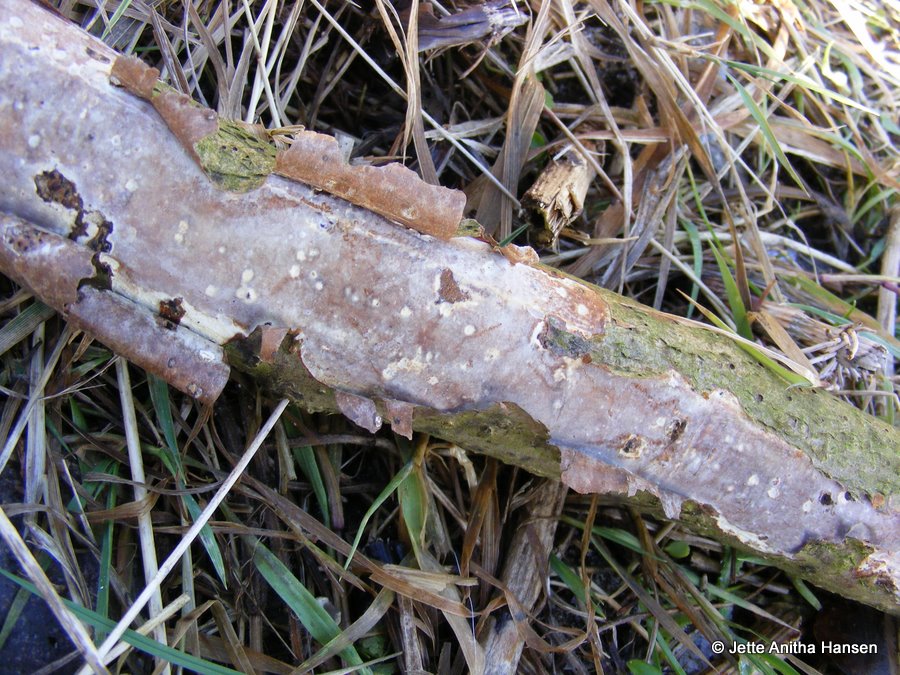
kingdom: Fungi
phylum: Basidiomycota
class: Agaricomycetes
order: Corticiales
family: Vuilleminiaceae
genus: Vuilleminia
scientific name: Vuilleminia comedens
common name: almindelig barksprænger
